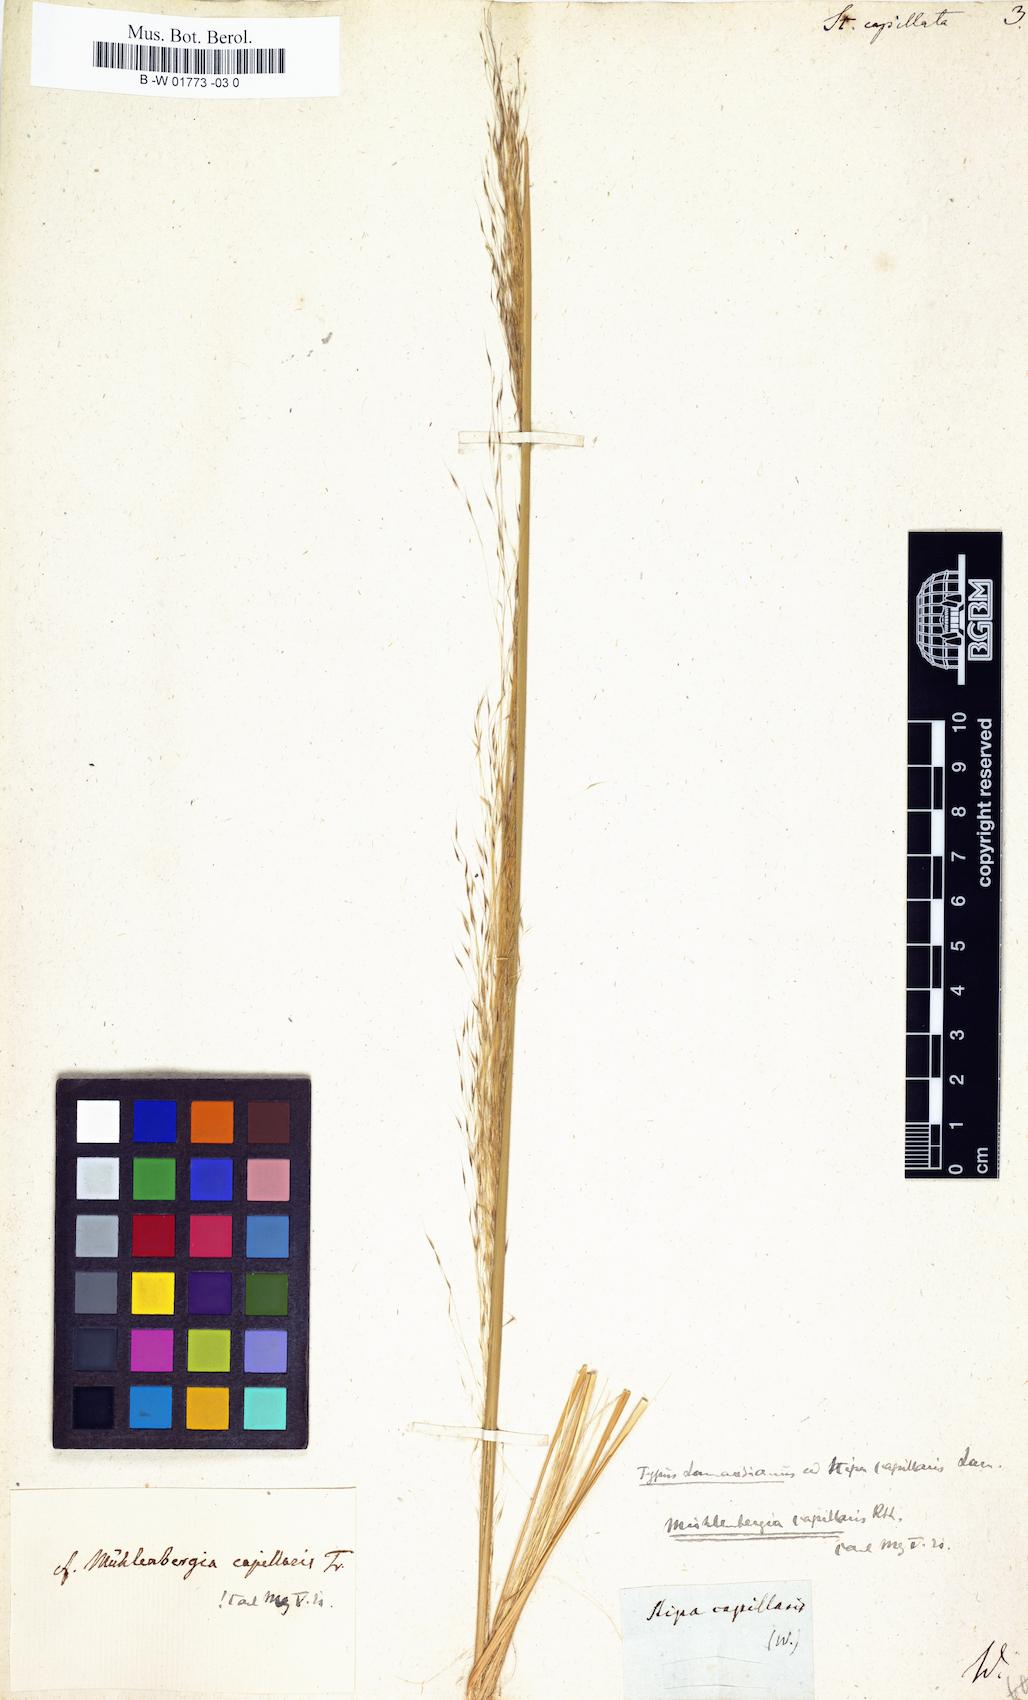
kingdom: Plantae
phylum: Tracheophyta
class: Liliopsida
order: Poales
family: Poaceae
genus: Stipa
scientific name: Stipa capillata
